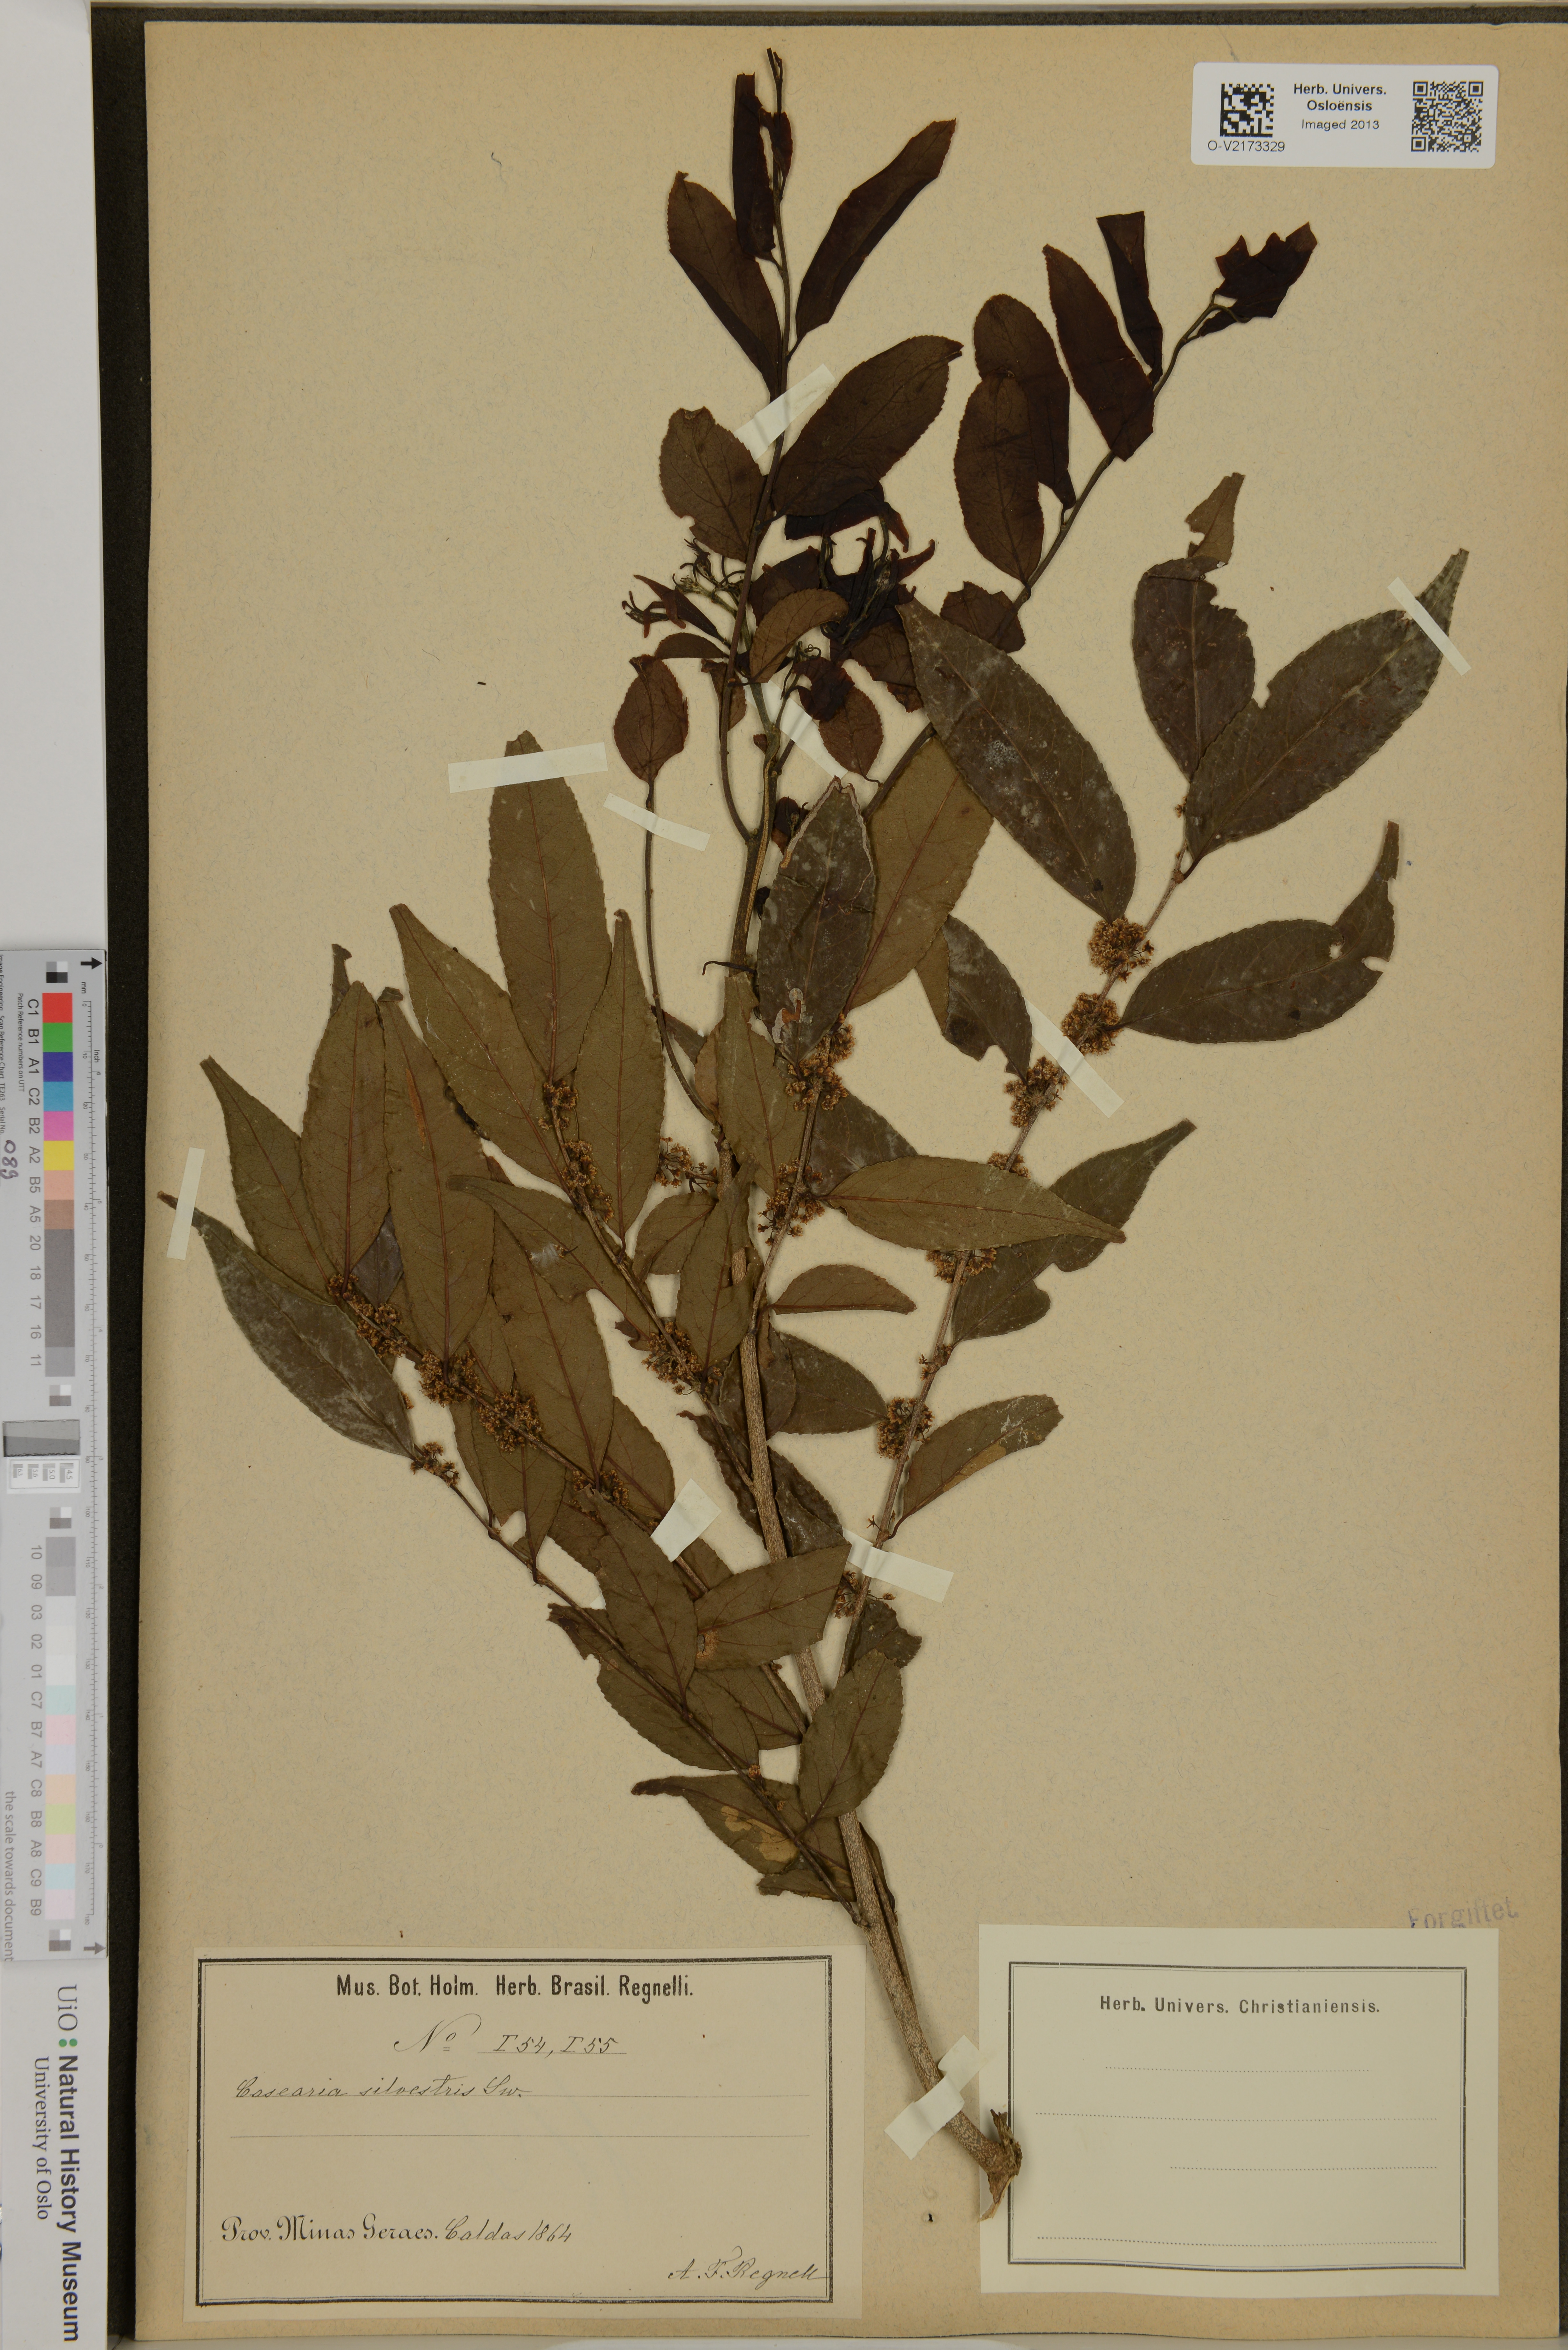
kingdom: Plantae
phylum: Tracheophyta
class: Magnoliopsida
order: Malpighiales
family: Salicaceae
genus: Casearia
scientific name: Casearia sylvestris
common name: Wild sage
